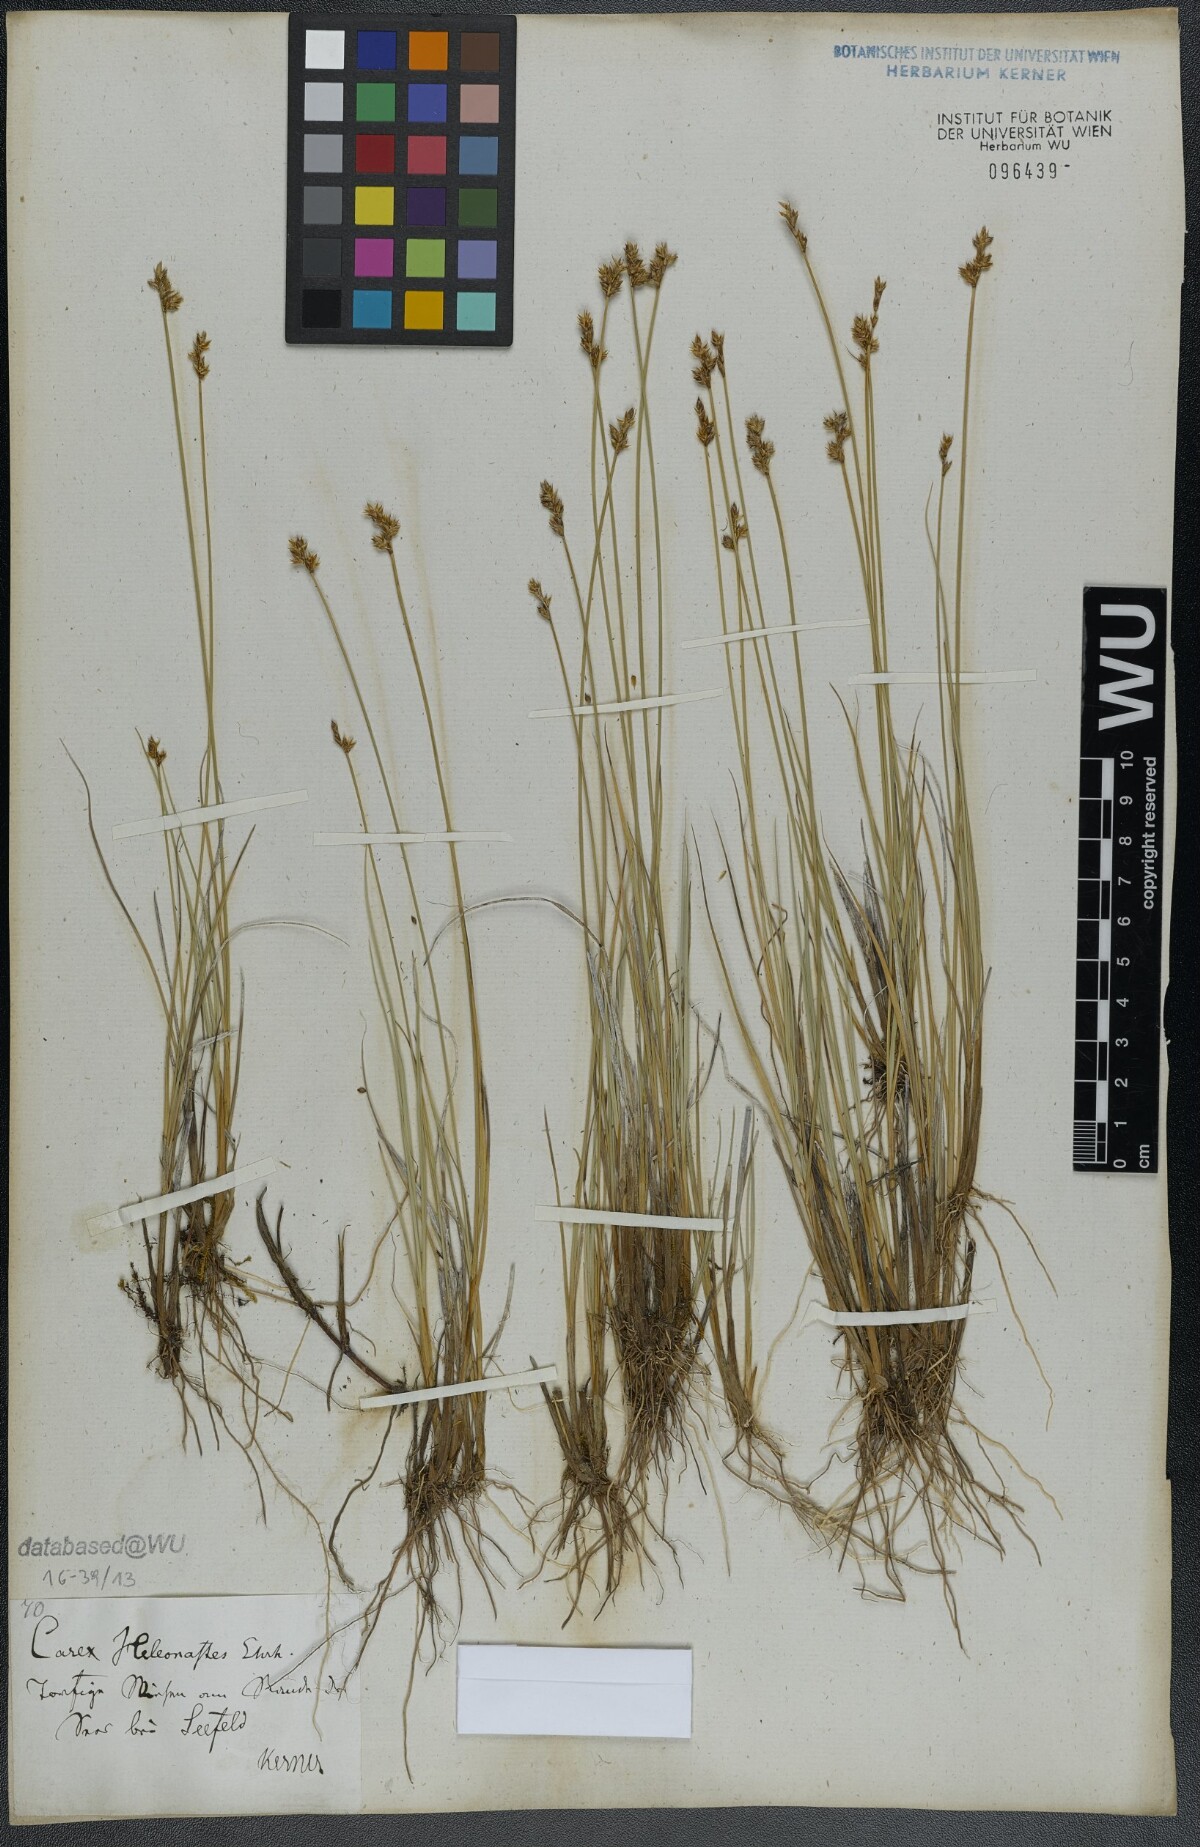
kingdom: Plantae
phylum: Tracheophyta
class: Liliopsida
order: Poales
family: Cyperaceae
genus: Carex
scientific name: Carex heleonastes
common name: Hudson bay sedge
